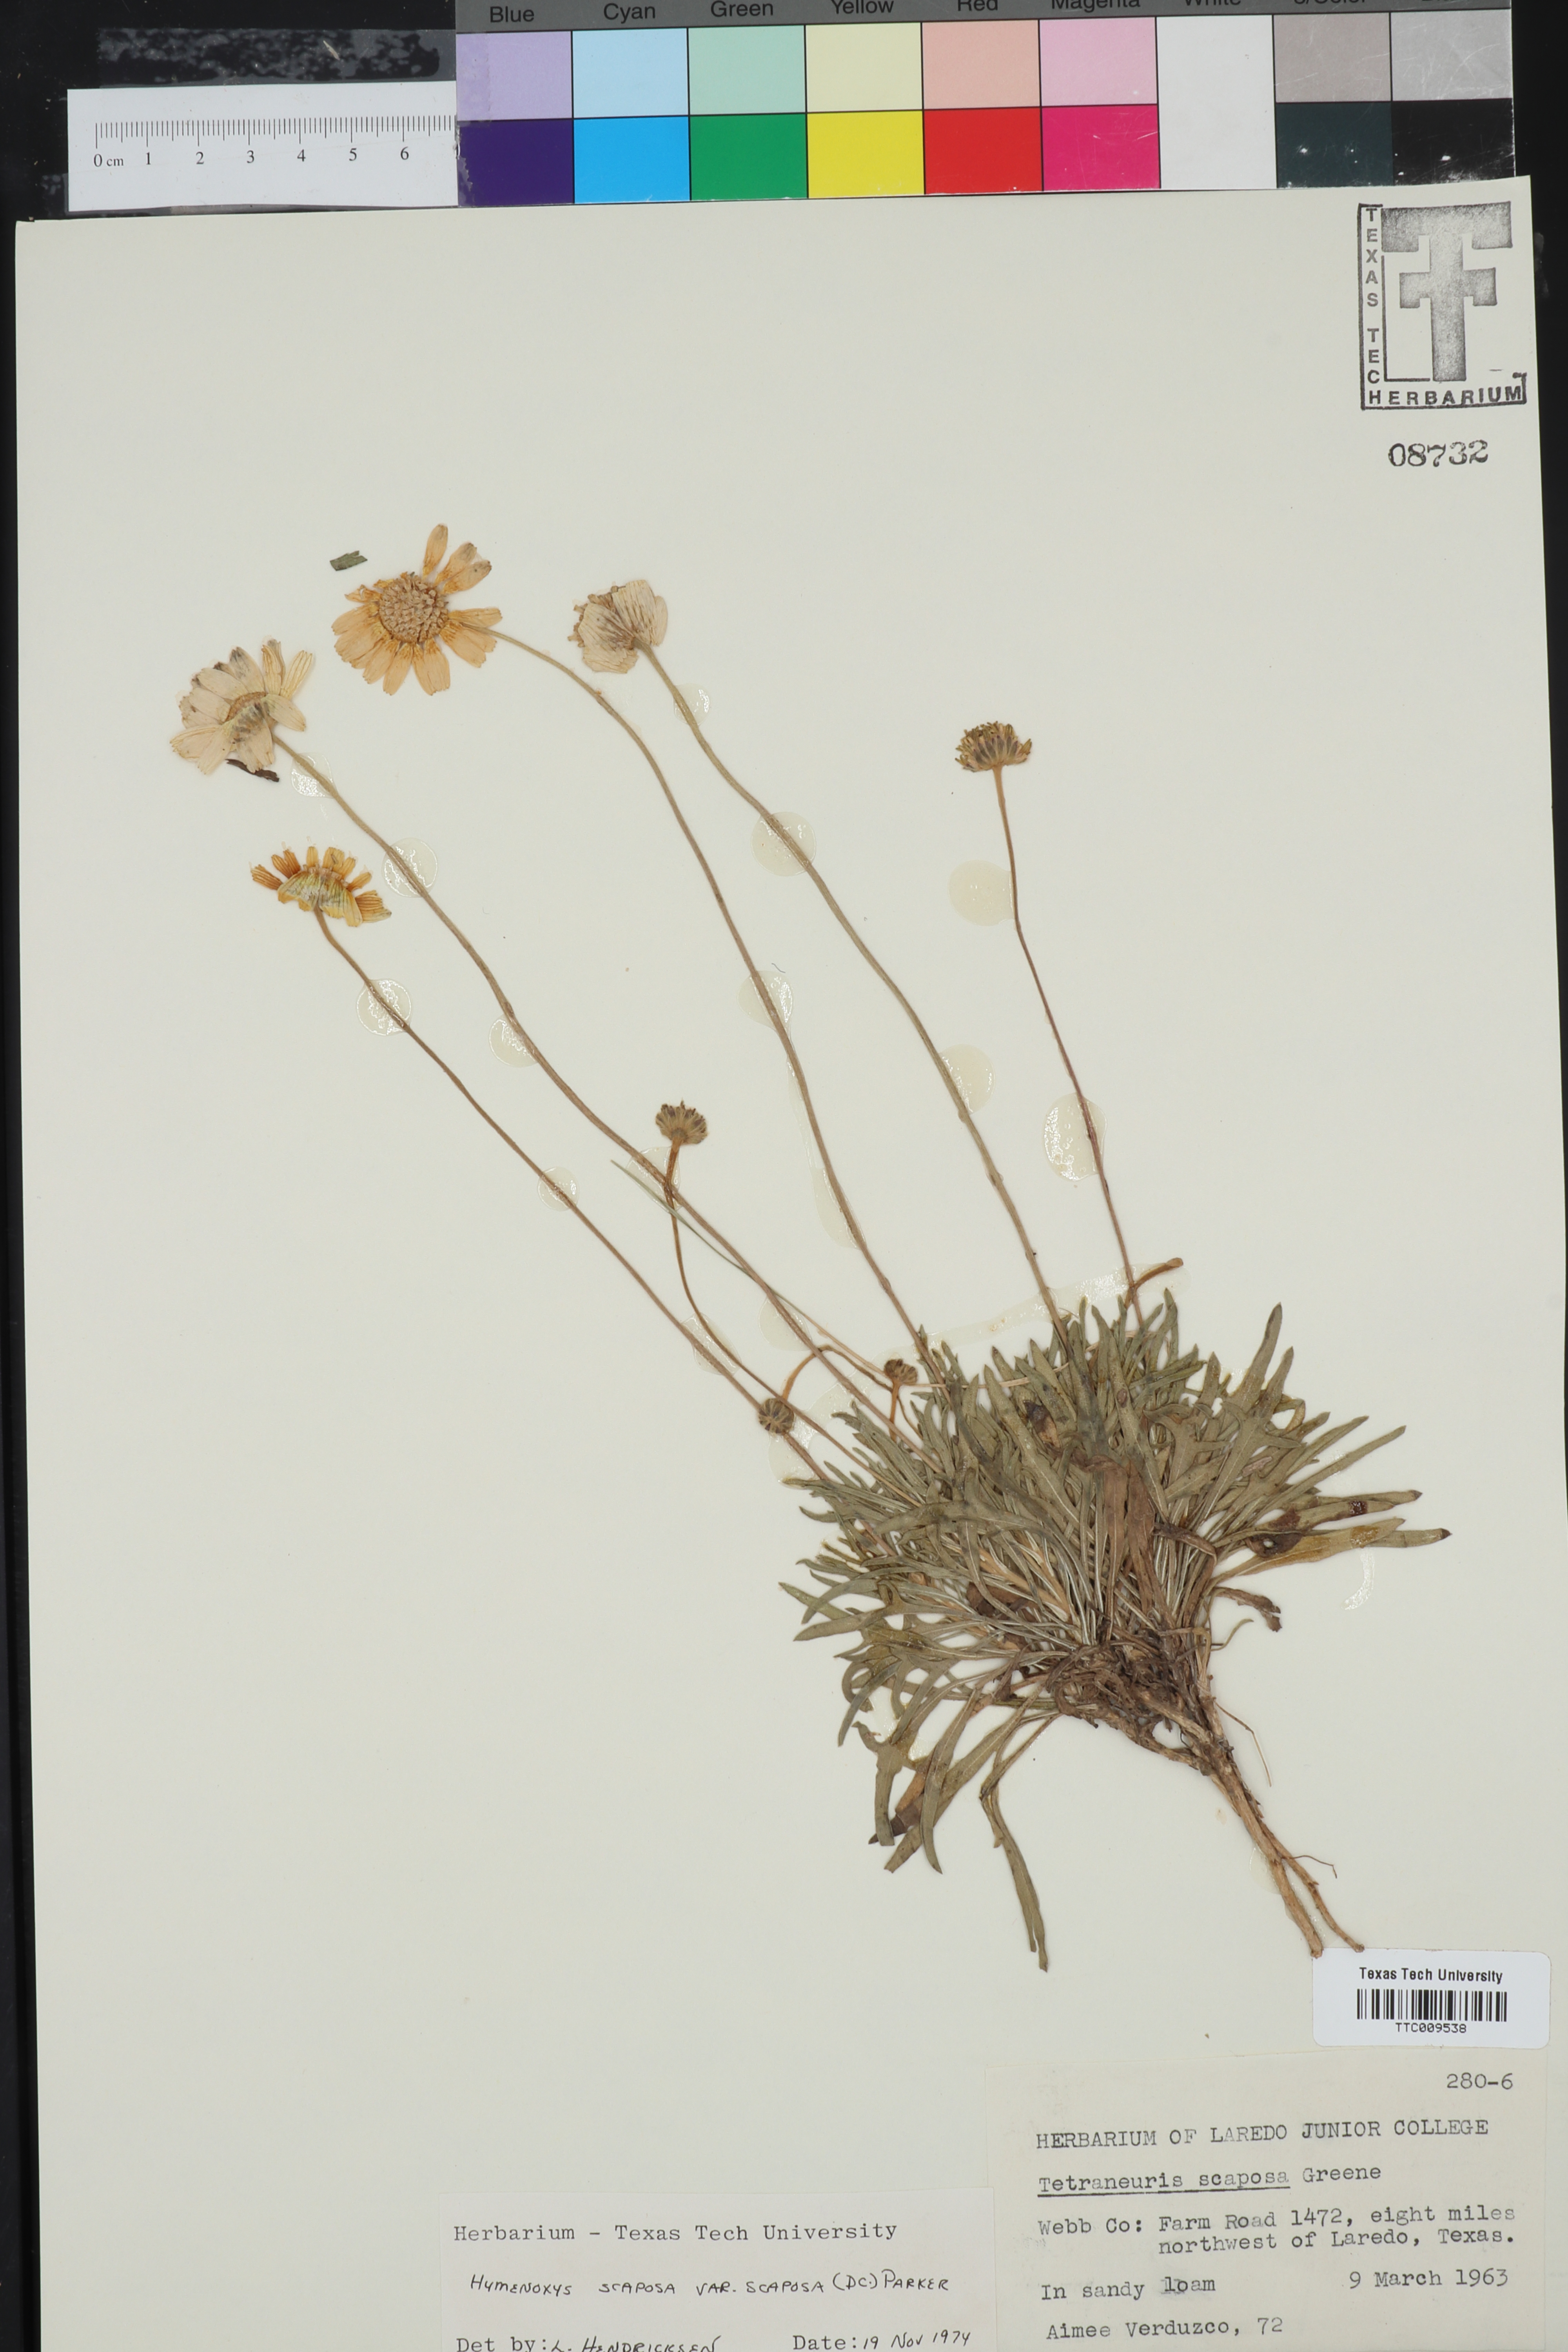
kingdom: Plantae
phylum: Tracheophyta
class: Magnoliopsida
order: Asterales
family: Asteraceae
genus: Tetraneuris
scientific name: Tetraneuris scaposa
